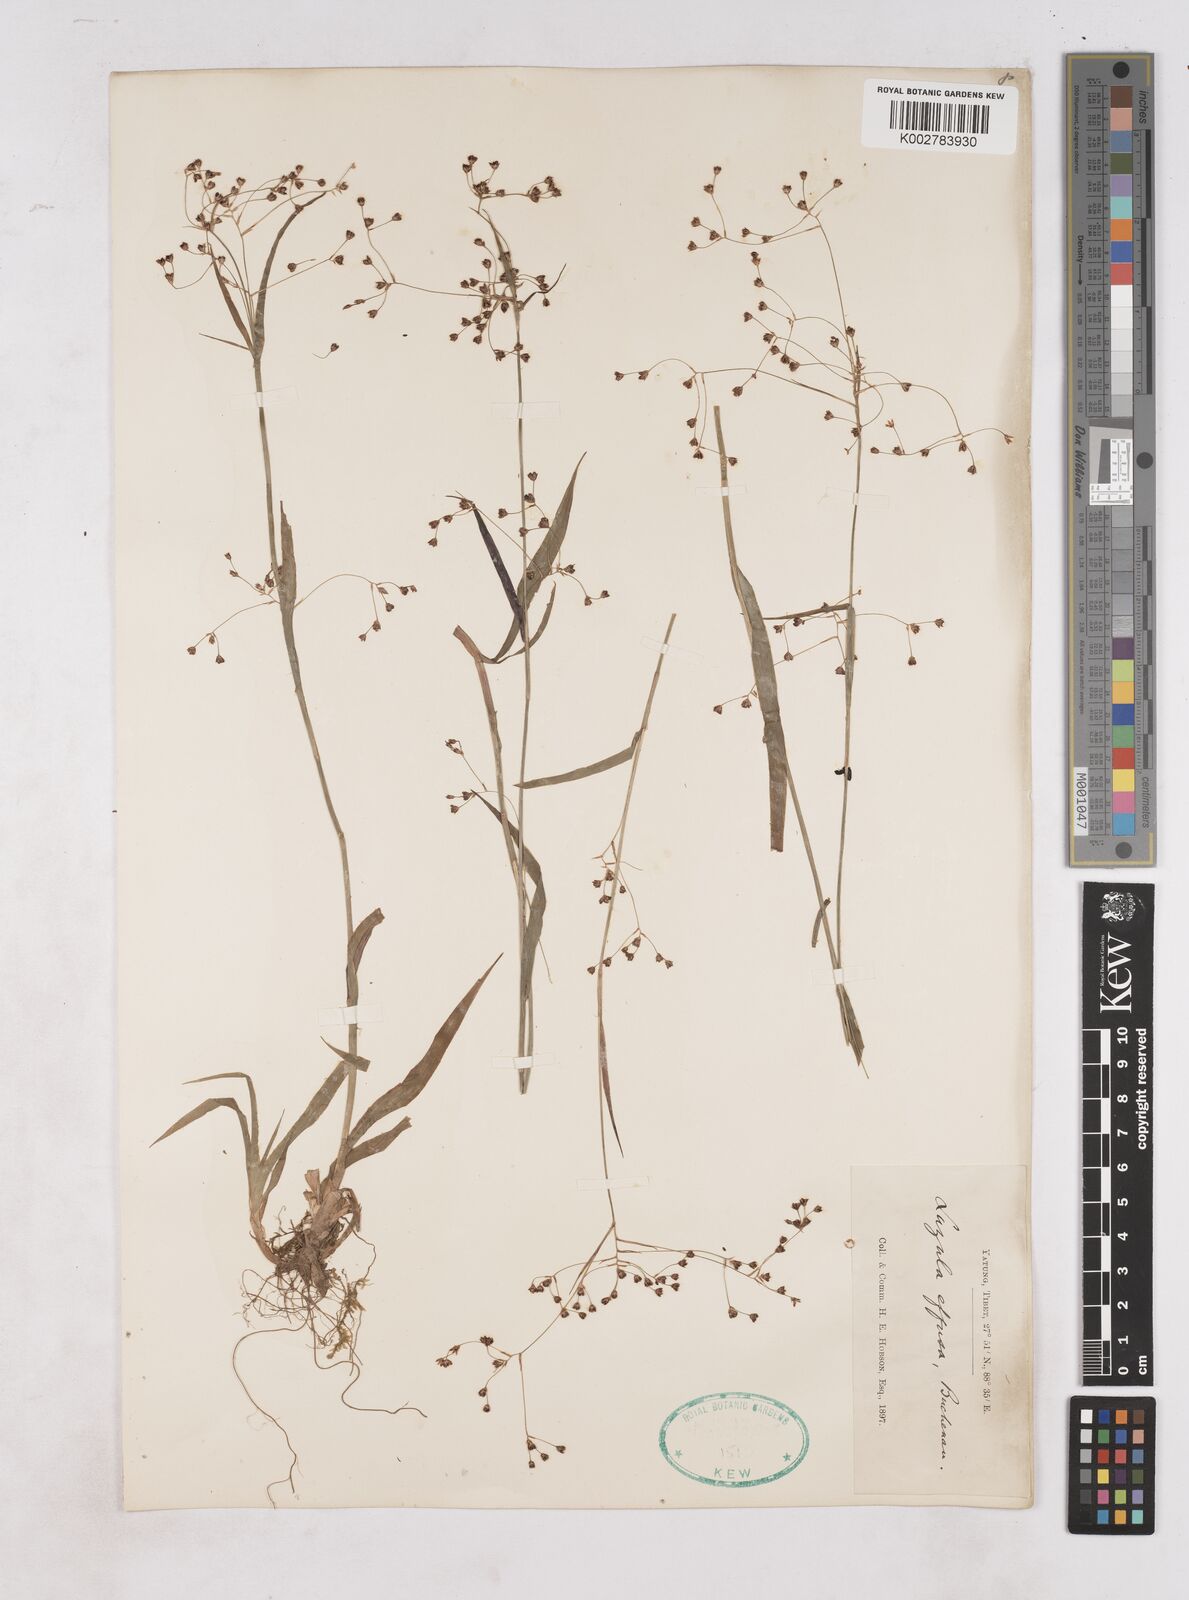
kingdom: Plantae
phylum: Tracheophyta
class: Liliopsida
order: Poales
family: Juncaceae
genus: Luzula
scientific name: Luzula effusa
